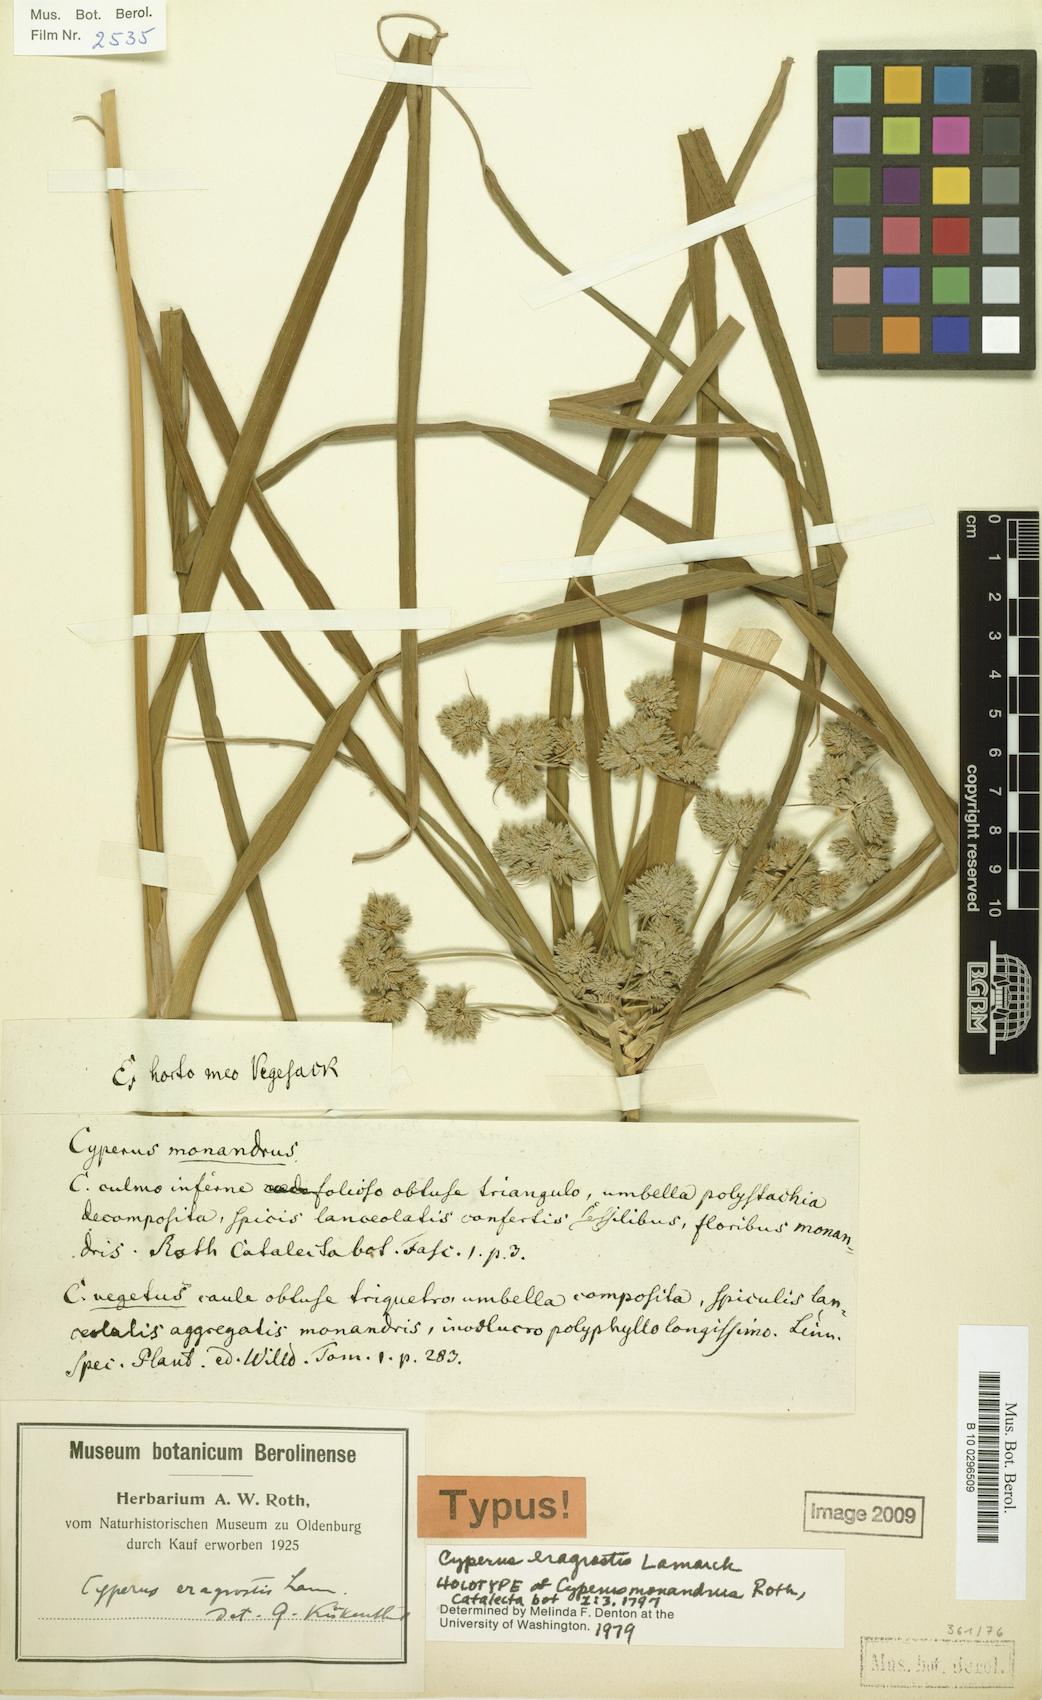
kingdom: Plantae
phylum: Tracheophyta
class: Liliopsida
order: Poales
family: Cyperaceae
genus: Cyperus
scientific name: Cyperus eragrostis
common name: Tall flatsedge
